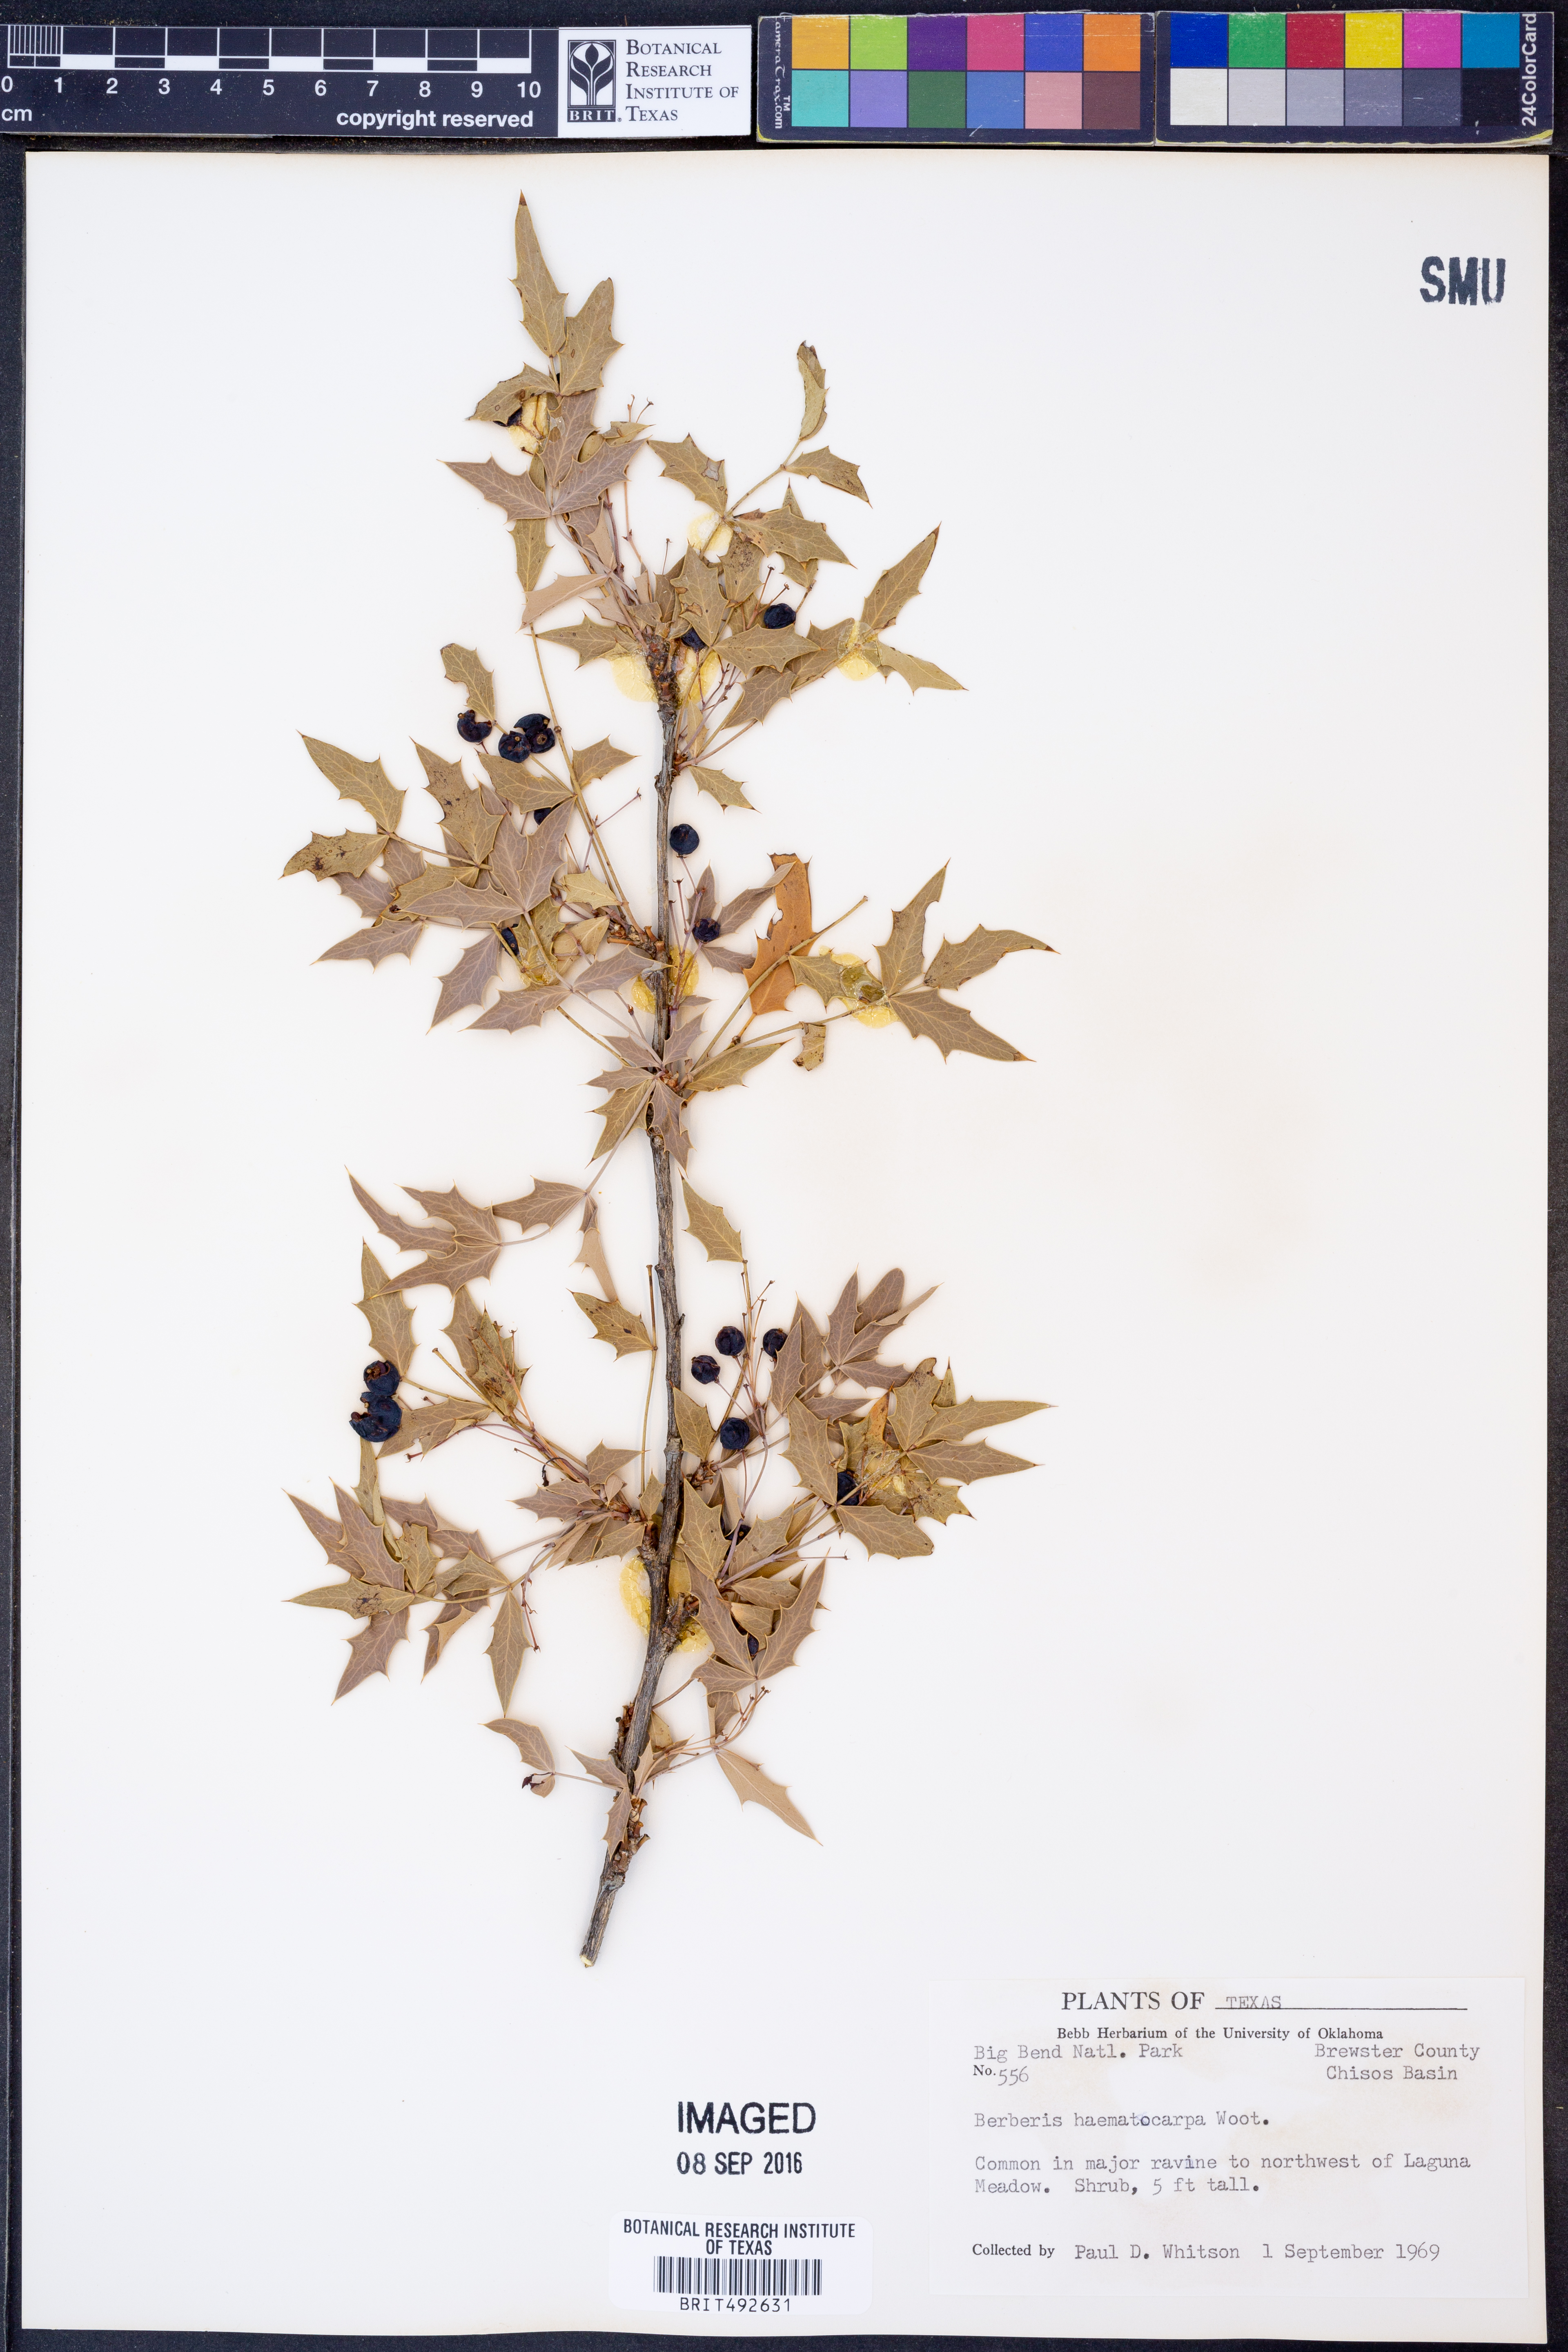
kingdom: Plantae
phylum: Tracheophyta
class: Magnoliopsida
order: Ranunculales
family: Berberidaceae
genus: Alloberberis
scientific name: Alloberberis haematocarpa
